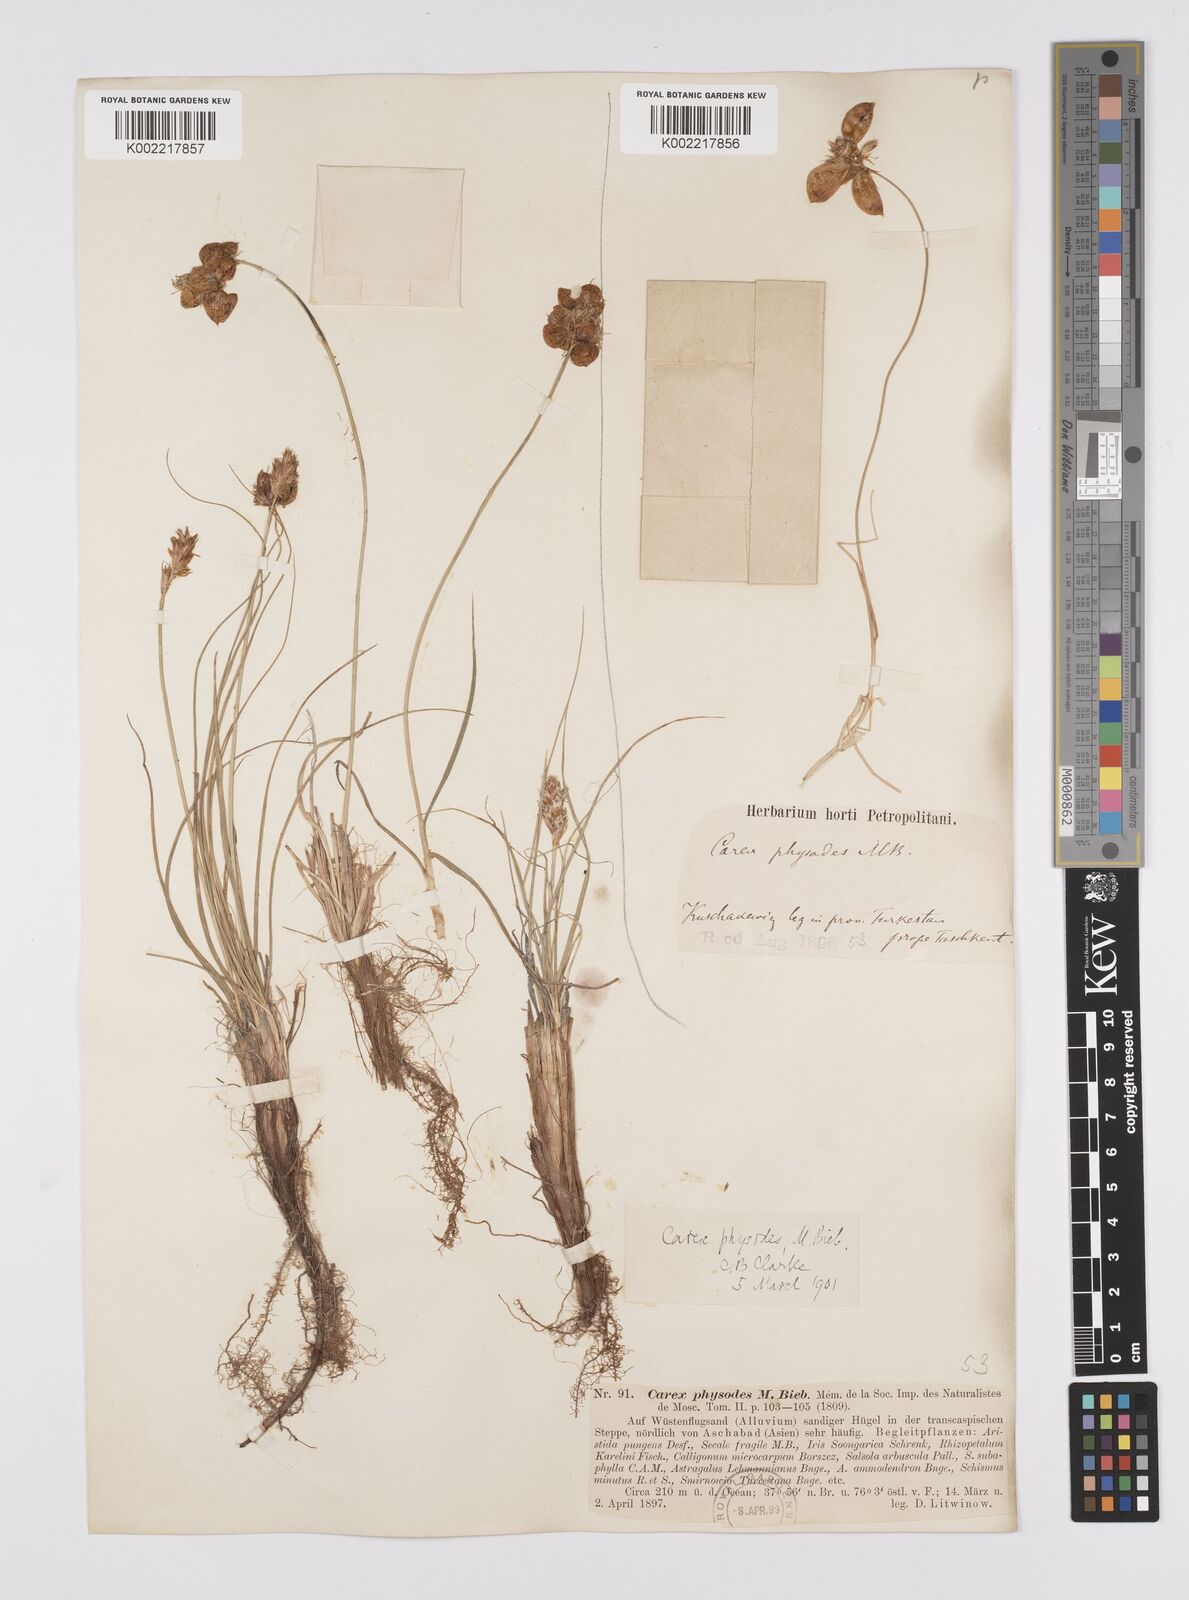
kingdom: Plantae
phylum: Tracheophyta
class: Liliopsida
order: Poales
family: Cyperaceae
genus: Carex
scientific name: Carex physodes
